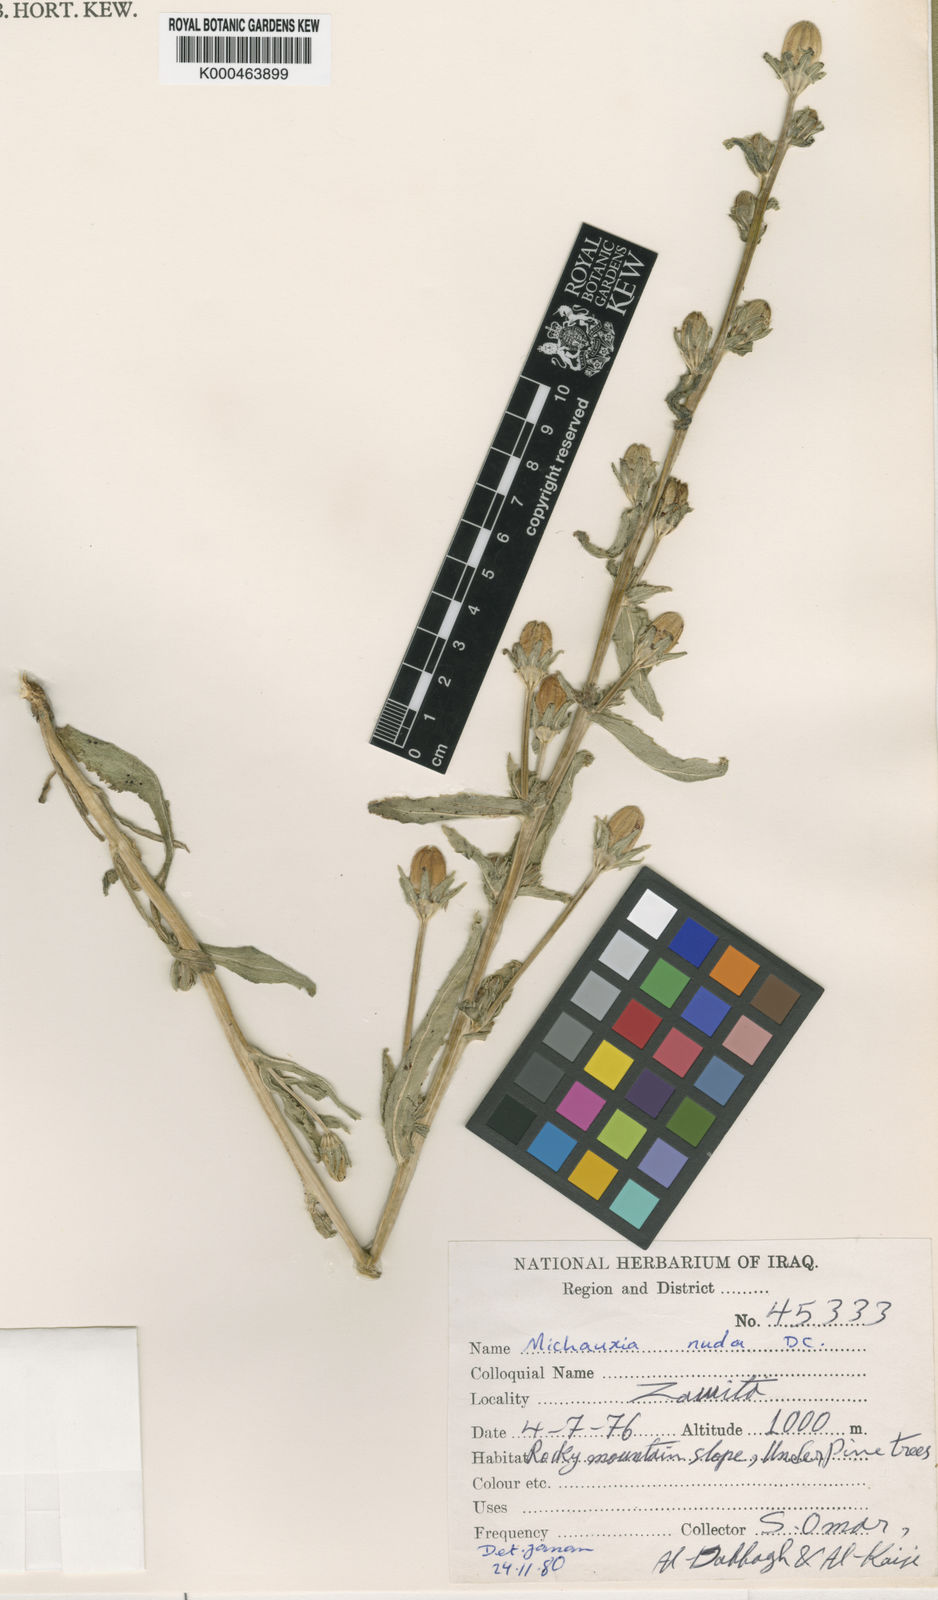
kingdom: Plantae
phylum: Tracheophyta
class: Magnoliopsida
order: Asterales
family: Campanulaceae
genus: Michauxia
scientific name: Michauxia nuda
